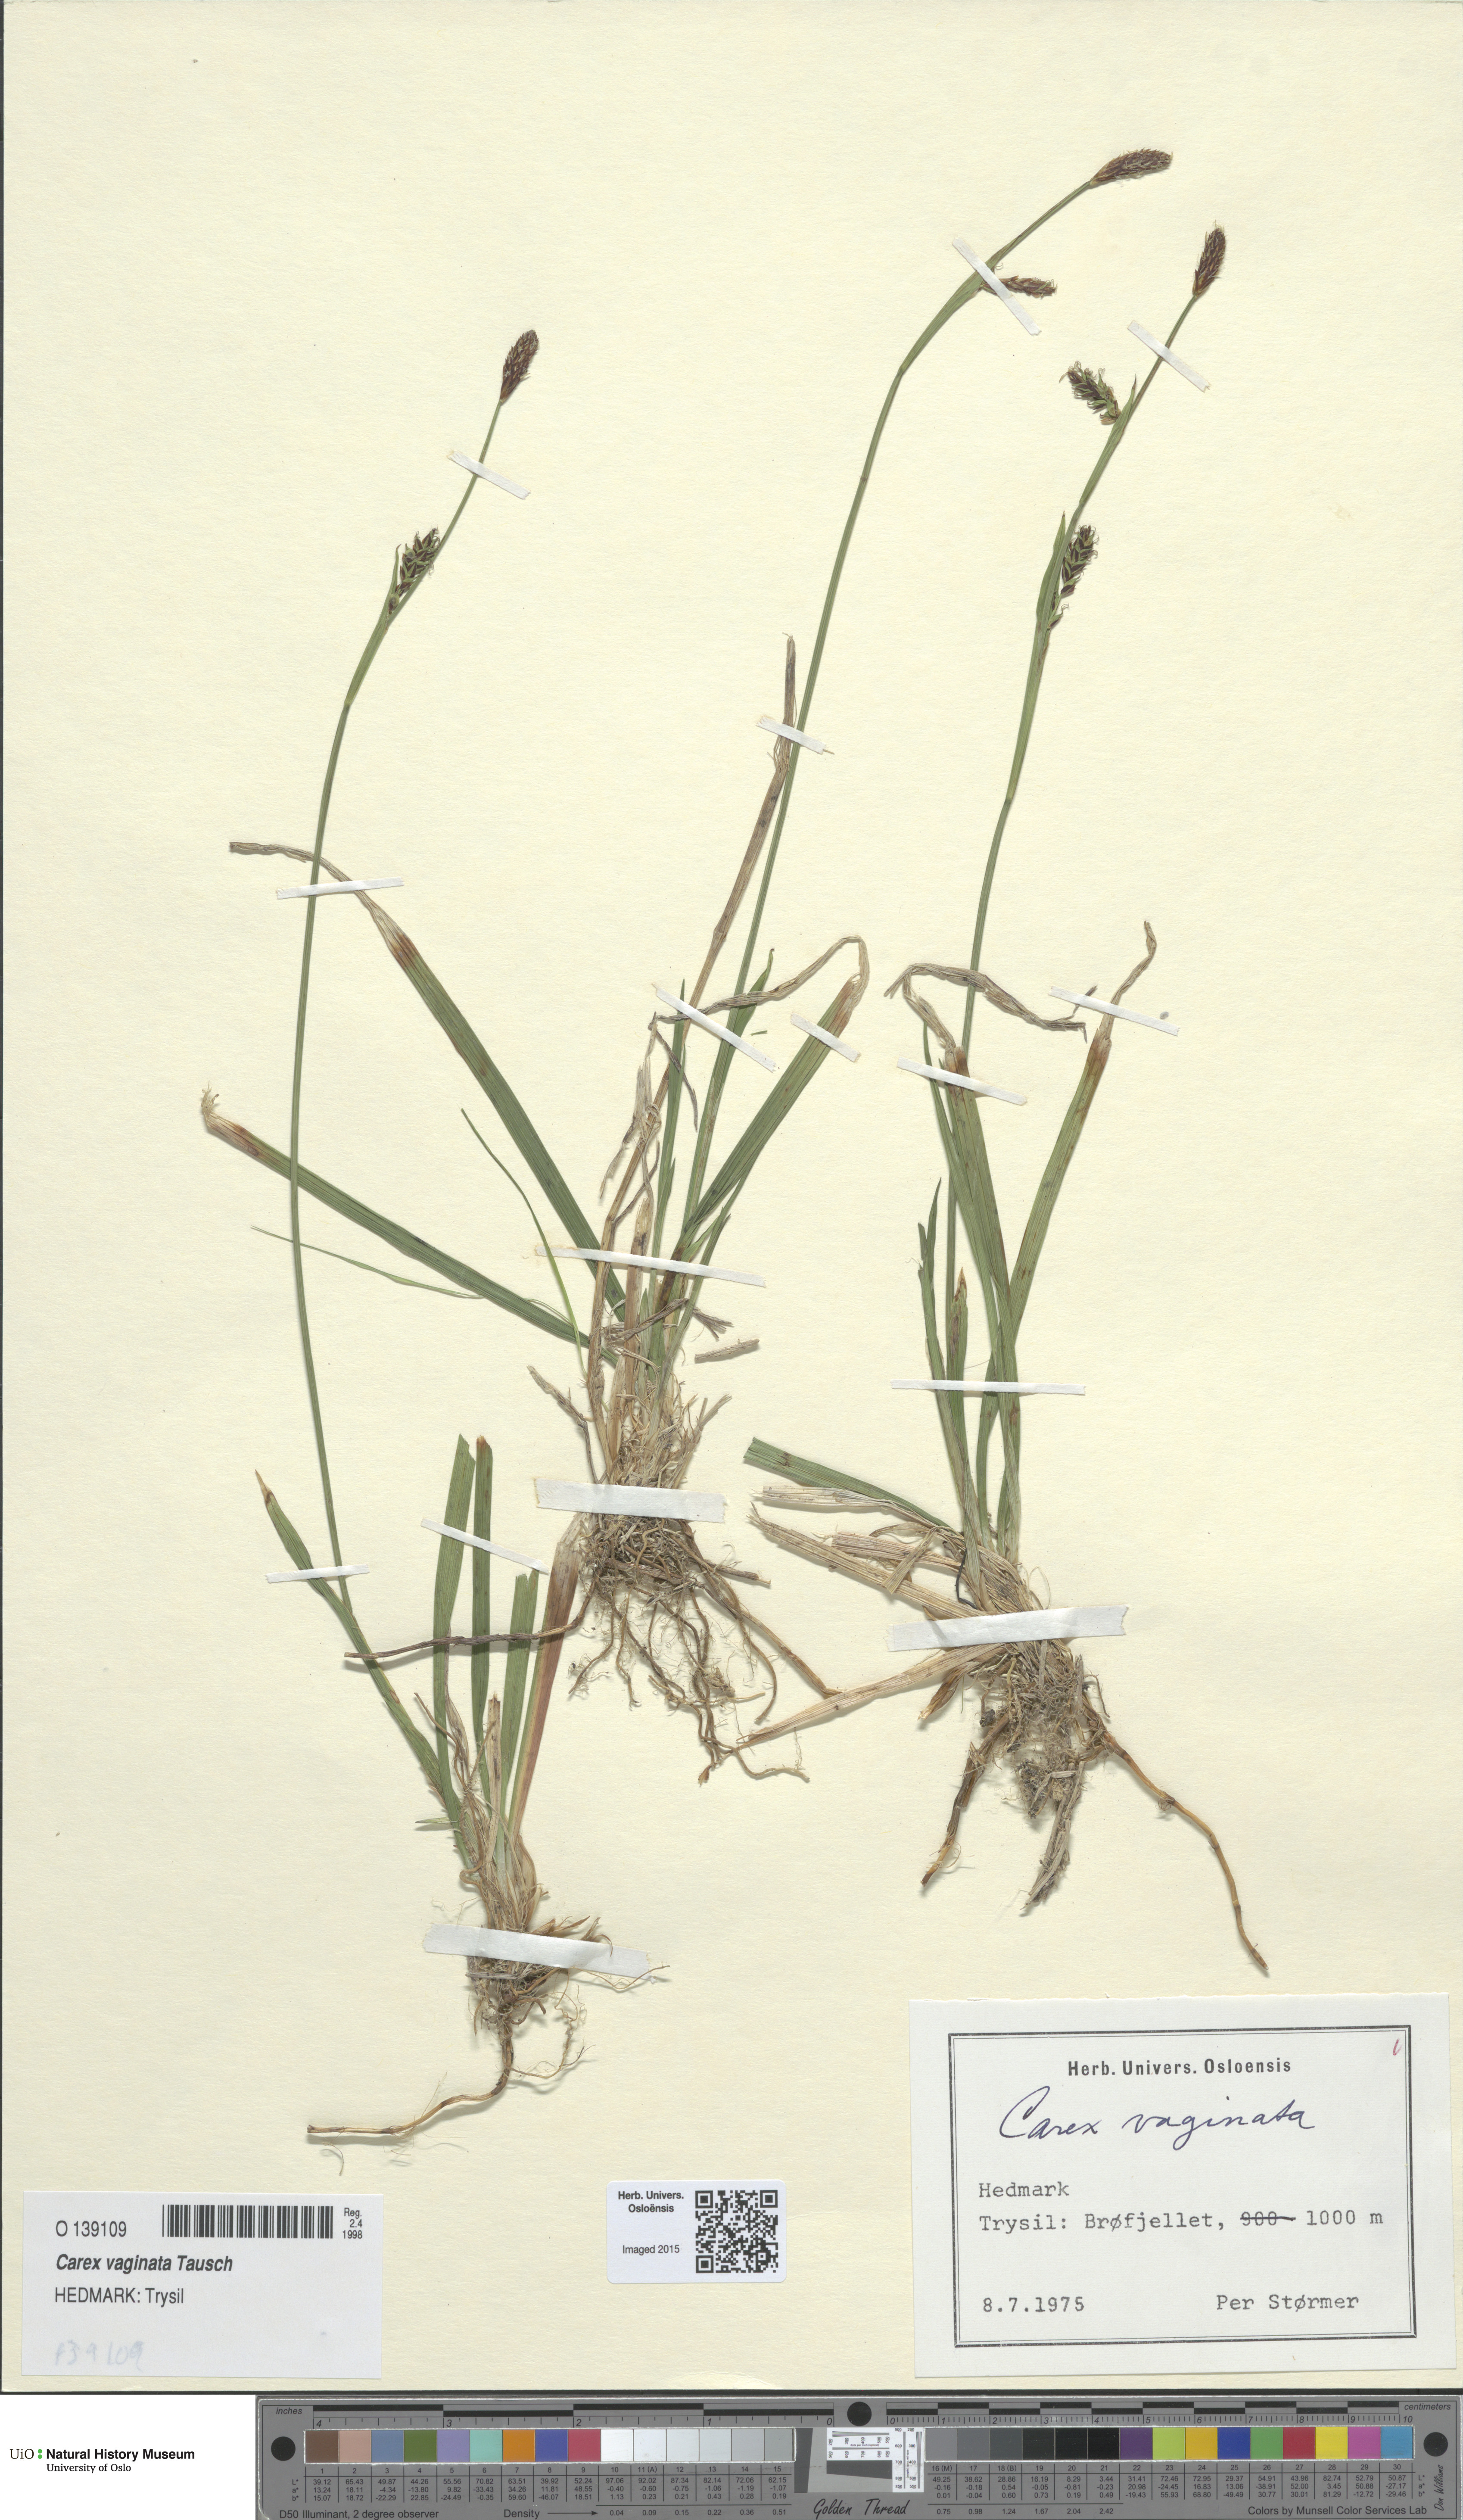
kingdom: Plantae
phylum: Tracheophyta
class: Liliopsida
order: Poales
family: Cyperaceae
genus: Carex
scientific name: Carex vaginata
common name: Sheathed sedge
